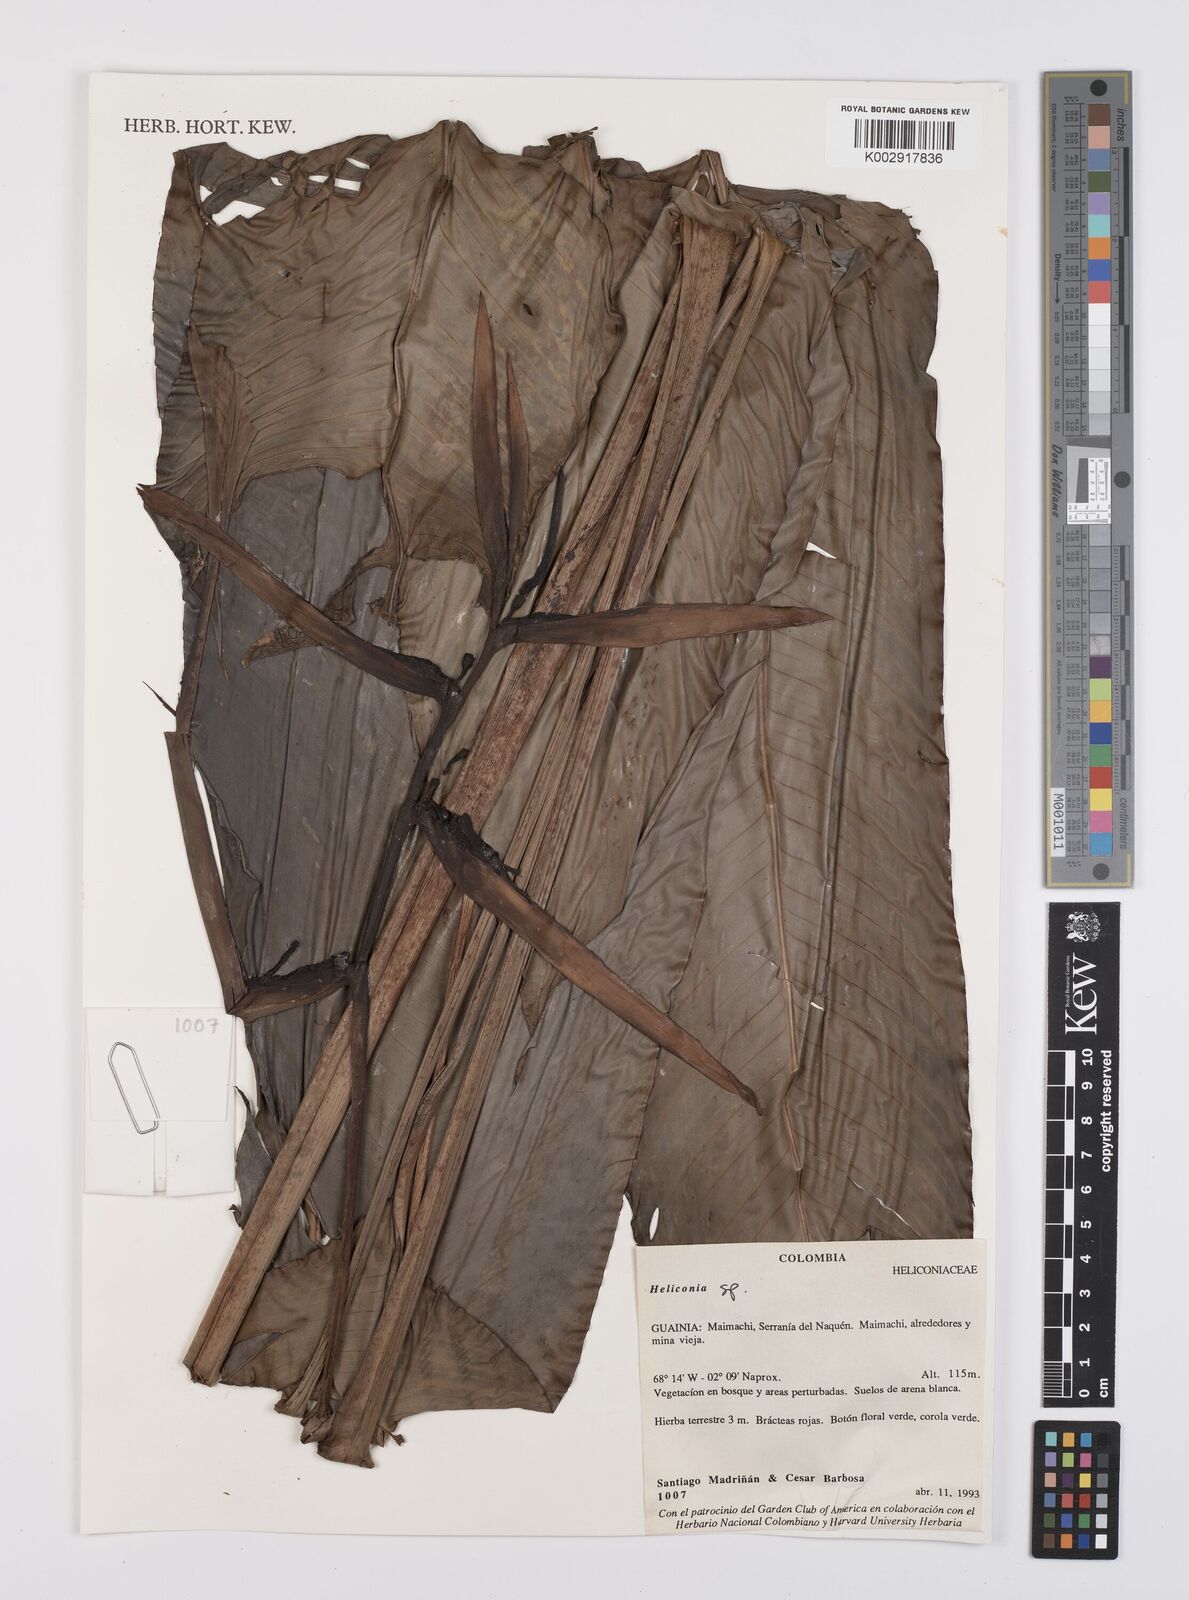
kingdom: Plantae
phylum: Tracheophyta
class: Liliopsida
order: Zingiberales
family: Heliconiaceae
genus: Heliconia
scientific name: Heliconia
